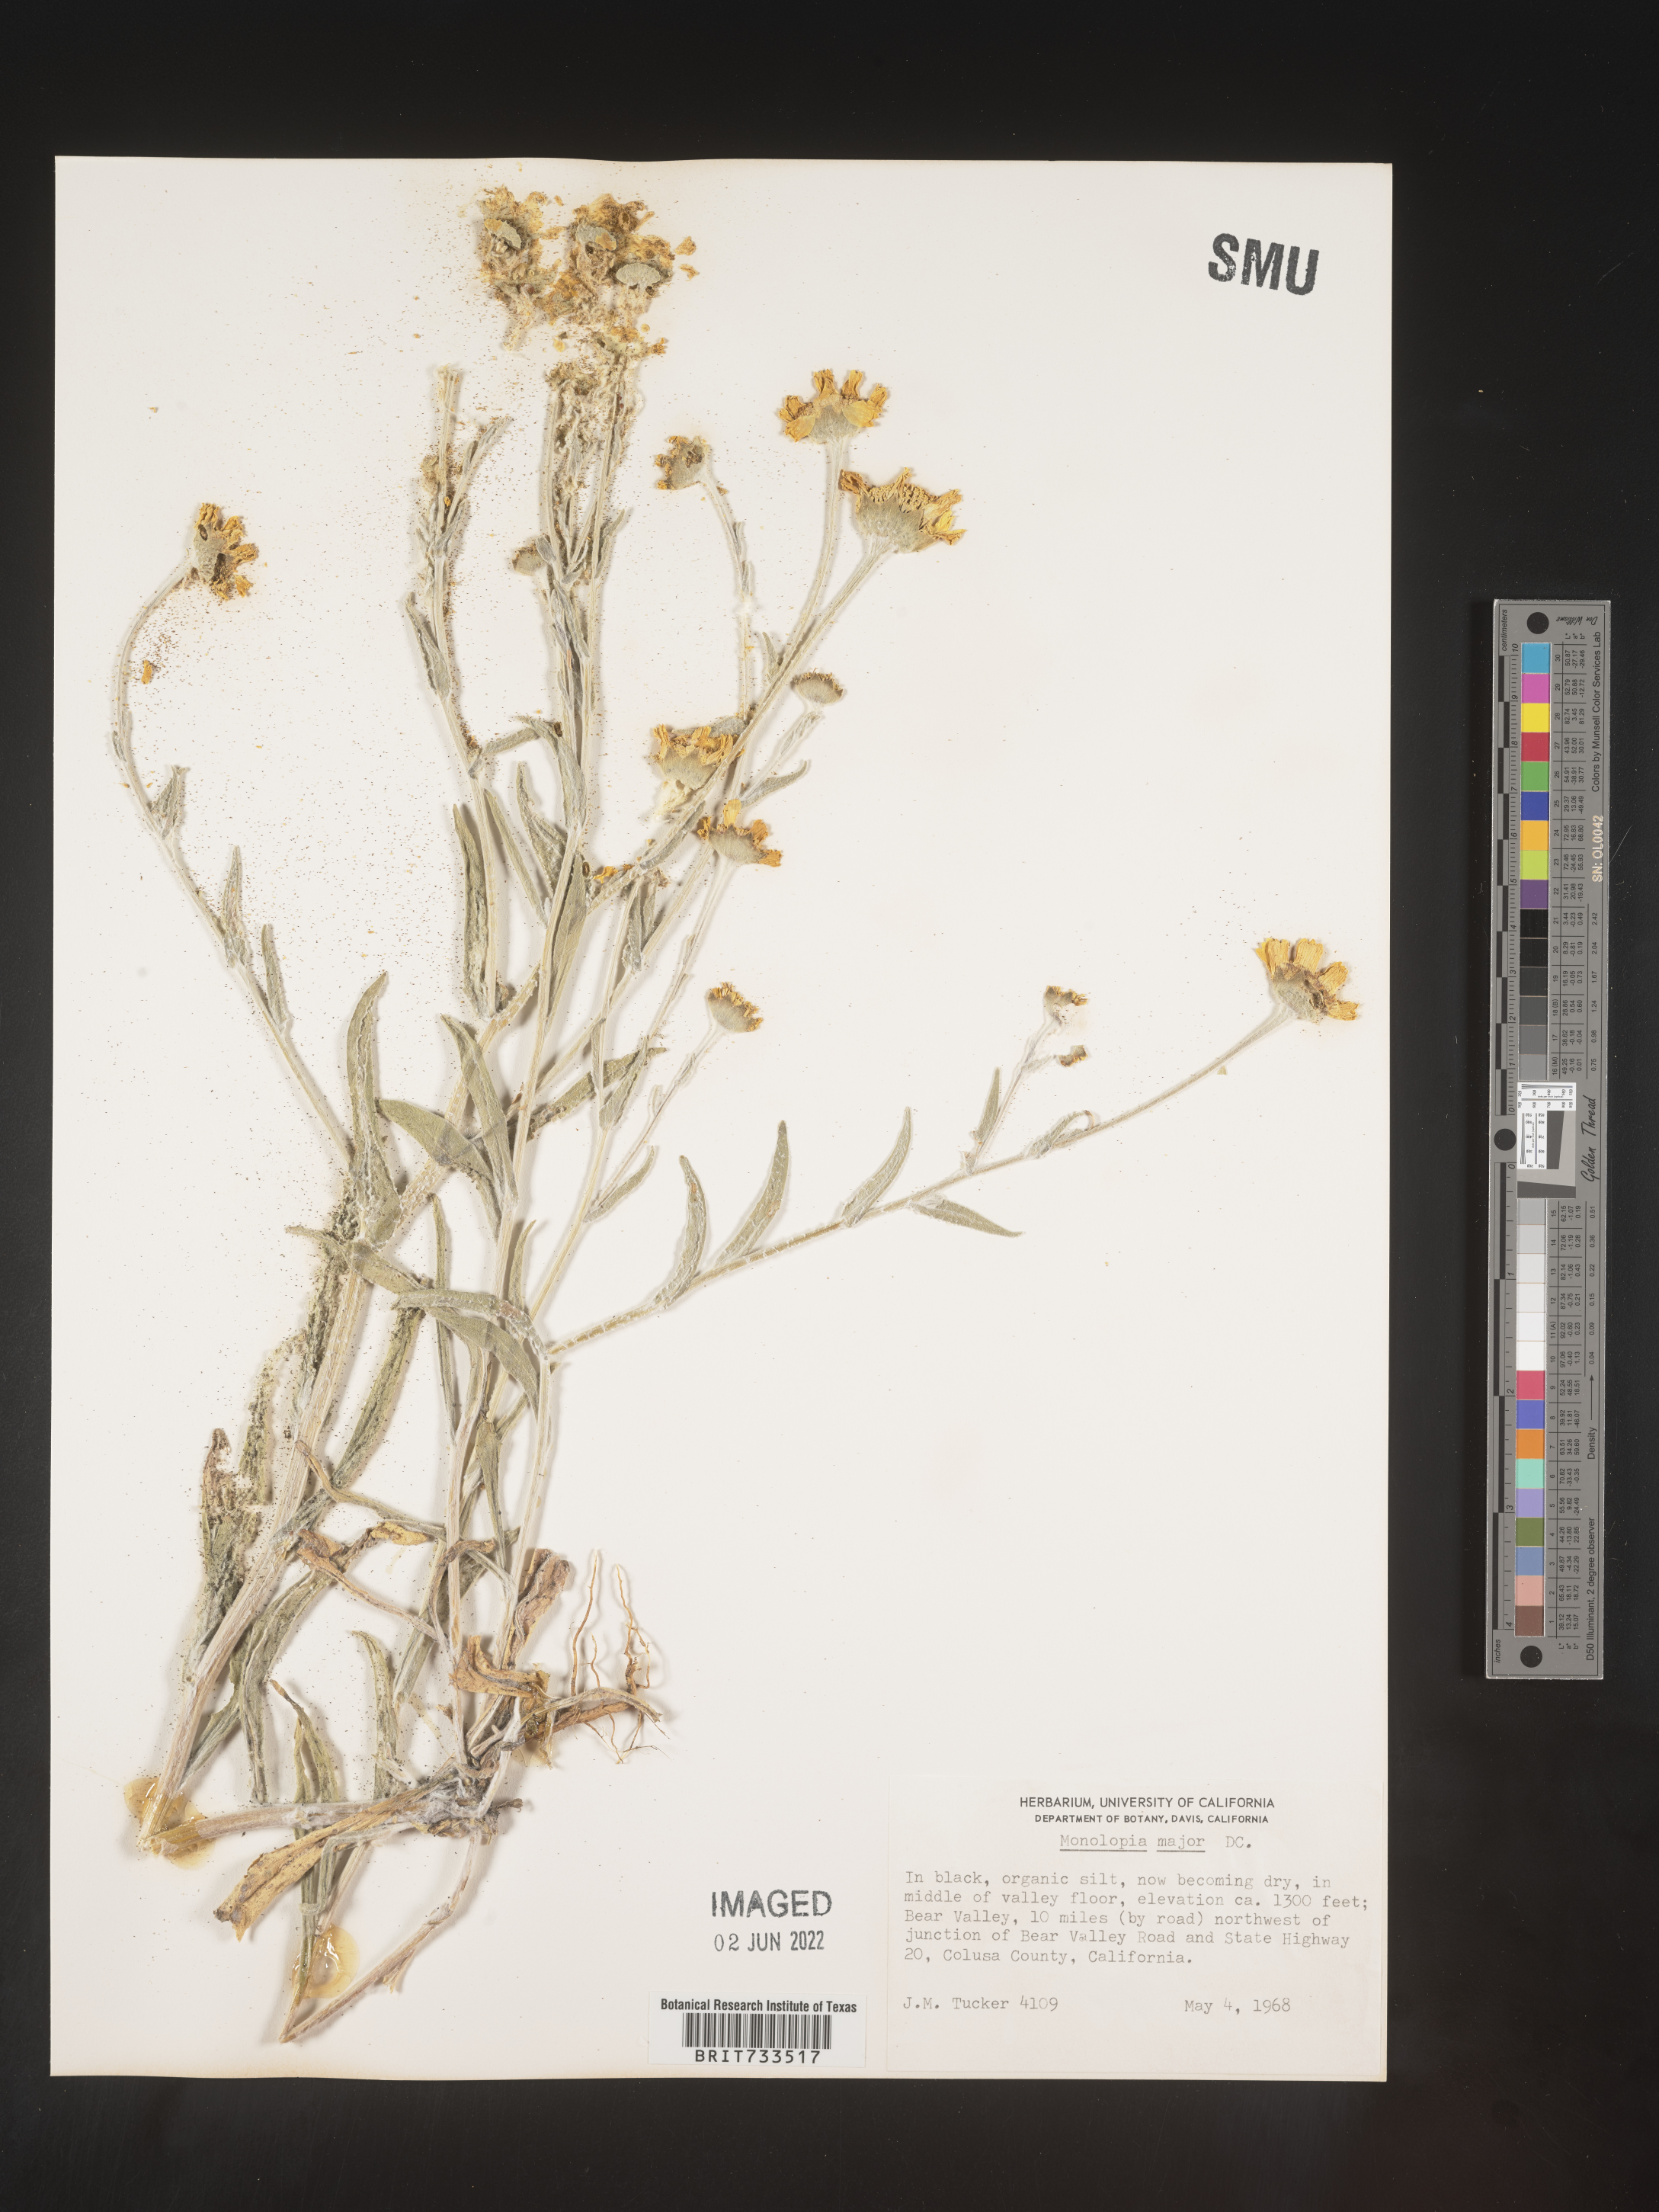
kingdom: Plantae
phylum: Tracheophyta
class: Magnoliopsida
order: Asterales
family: Asteraceae
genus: Monolopia
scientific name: Monolopia major
